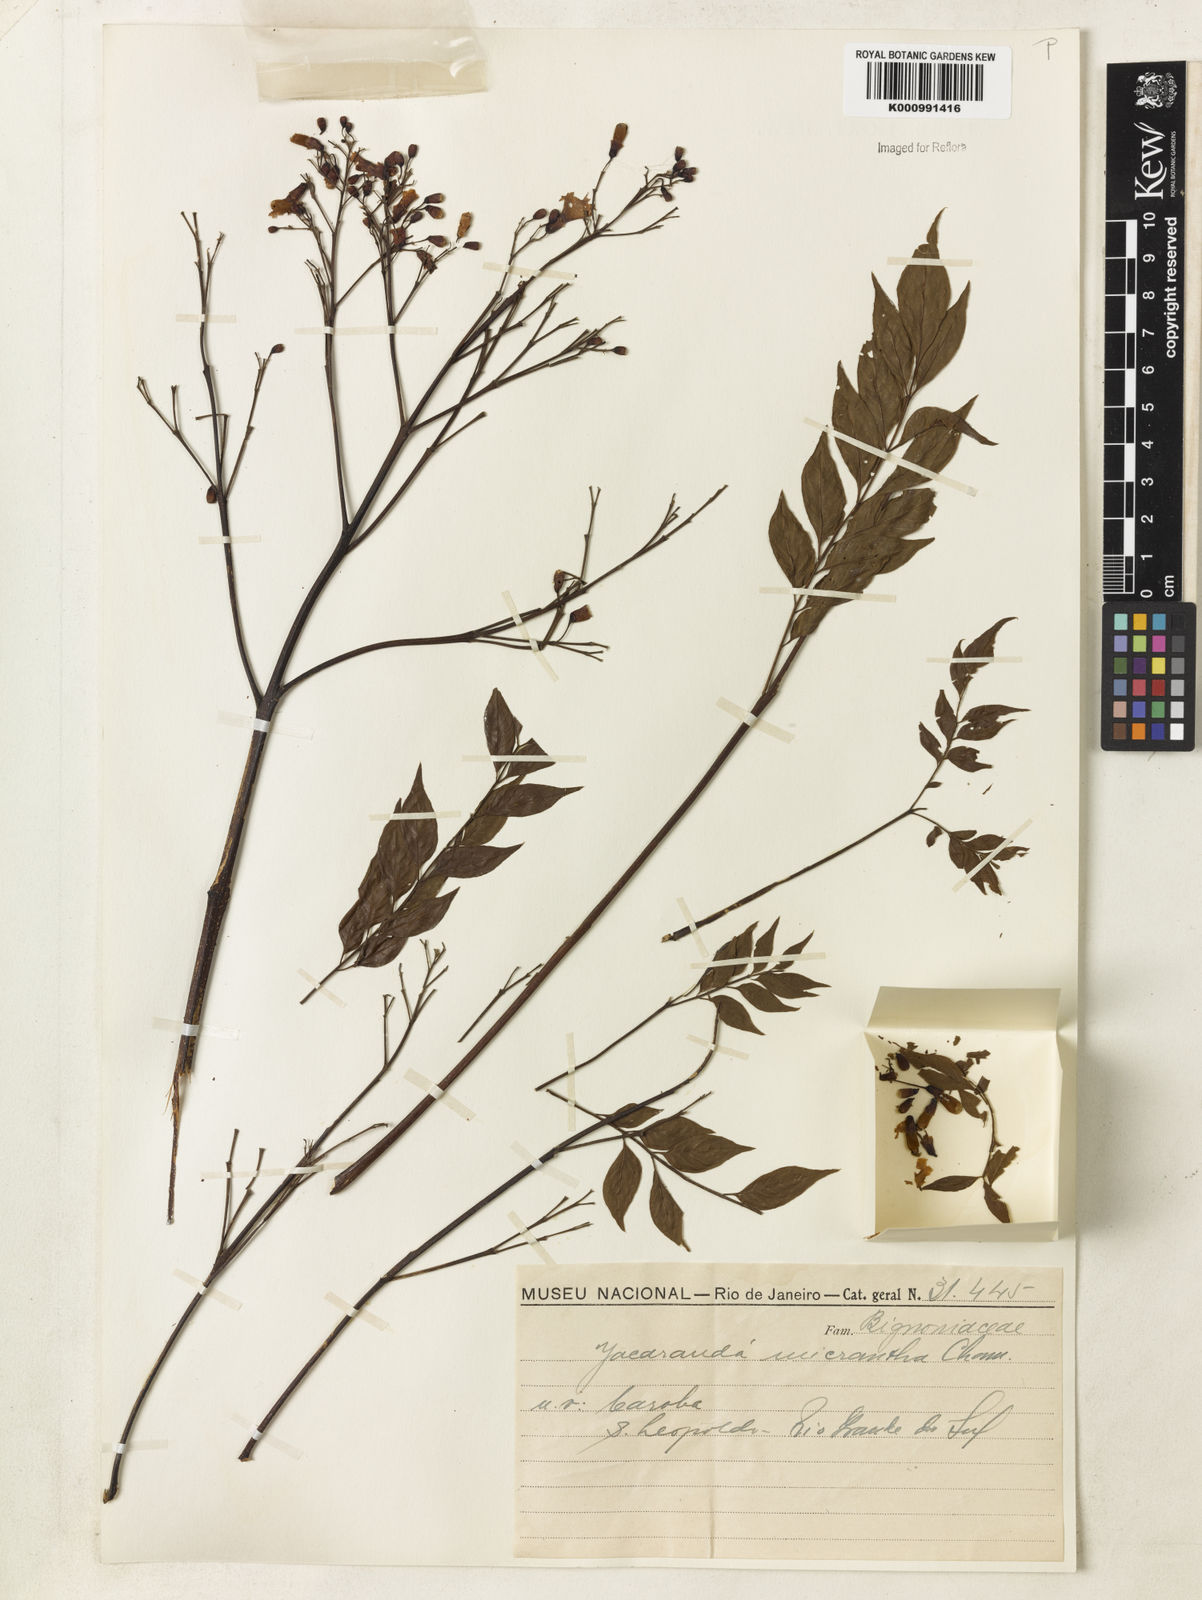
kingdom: Plantae
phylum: Tracheophyta
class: Magnoliopsida
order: Lamiales
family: Bignoniaceae
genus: Jacaranda
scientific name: Jacaranda micrantha
